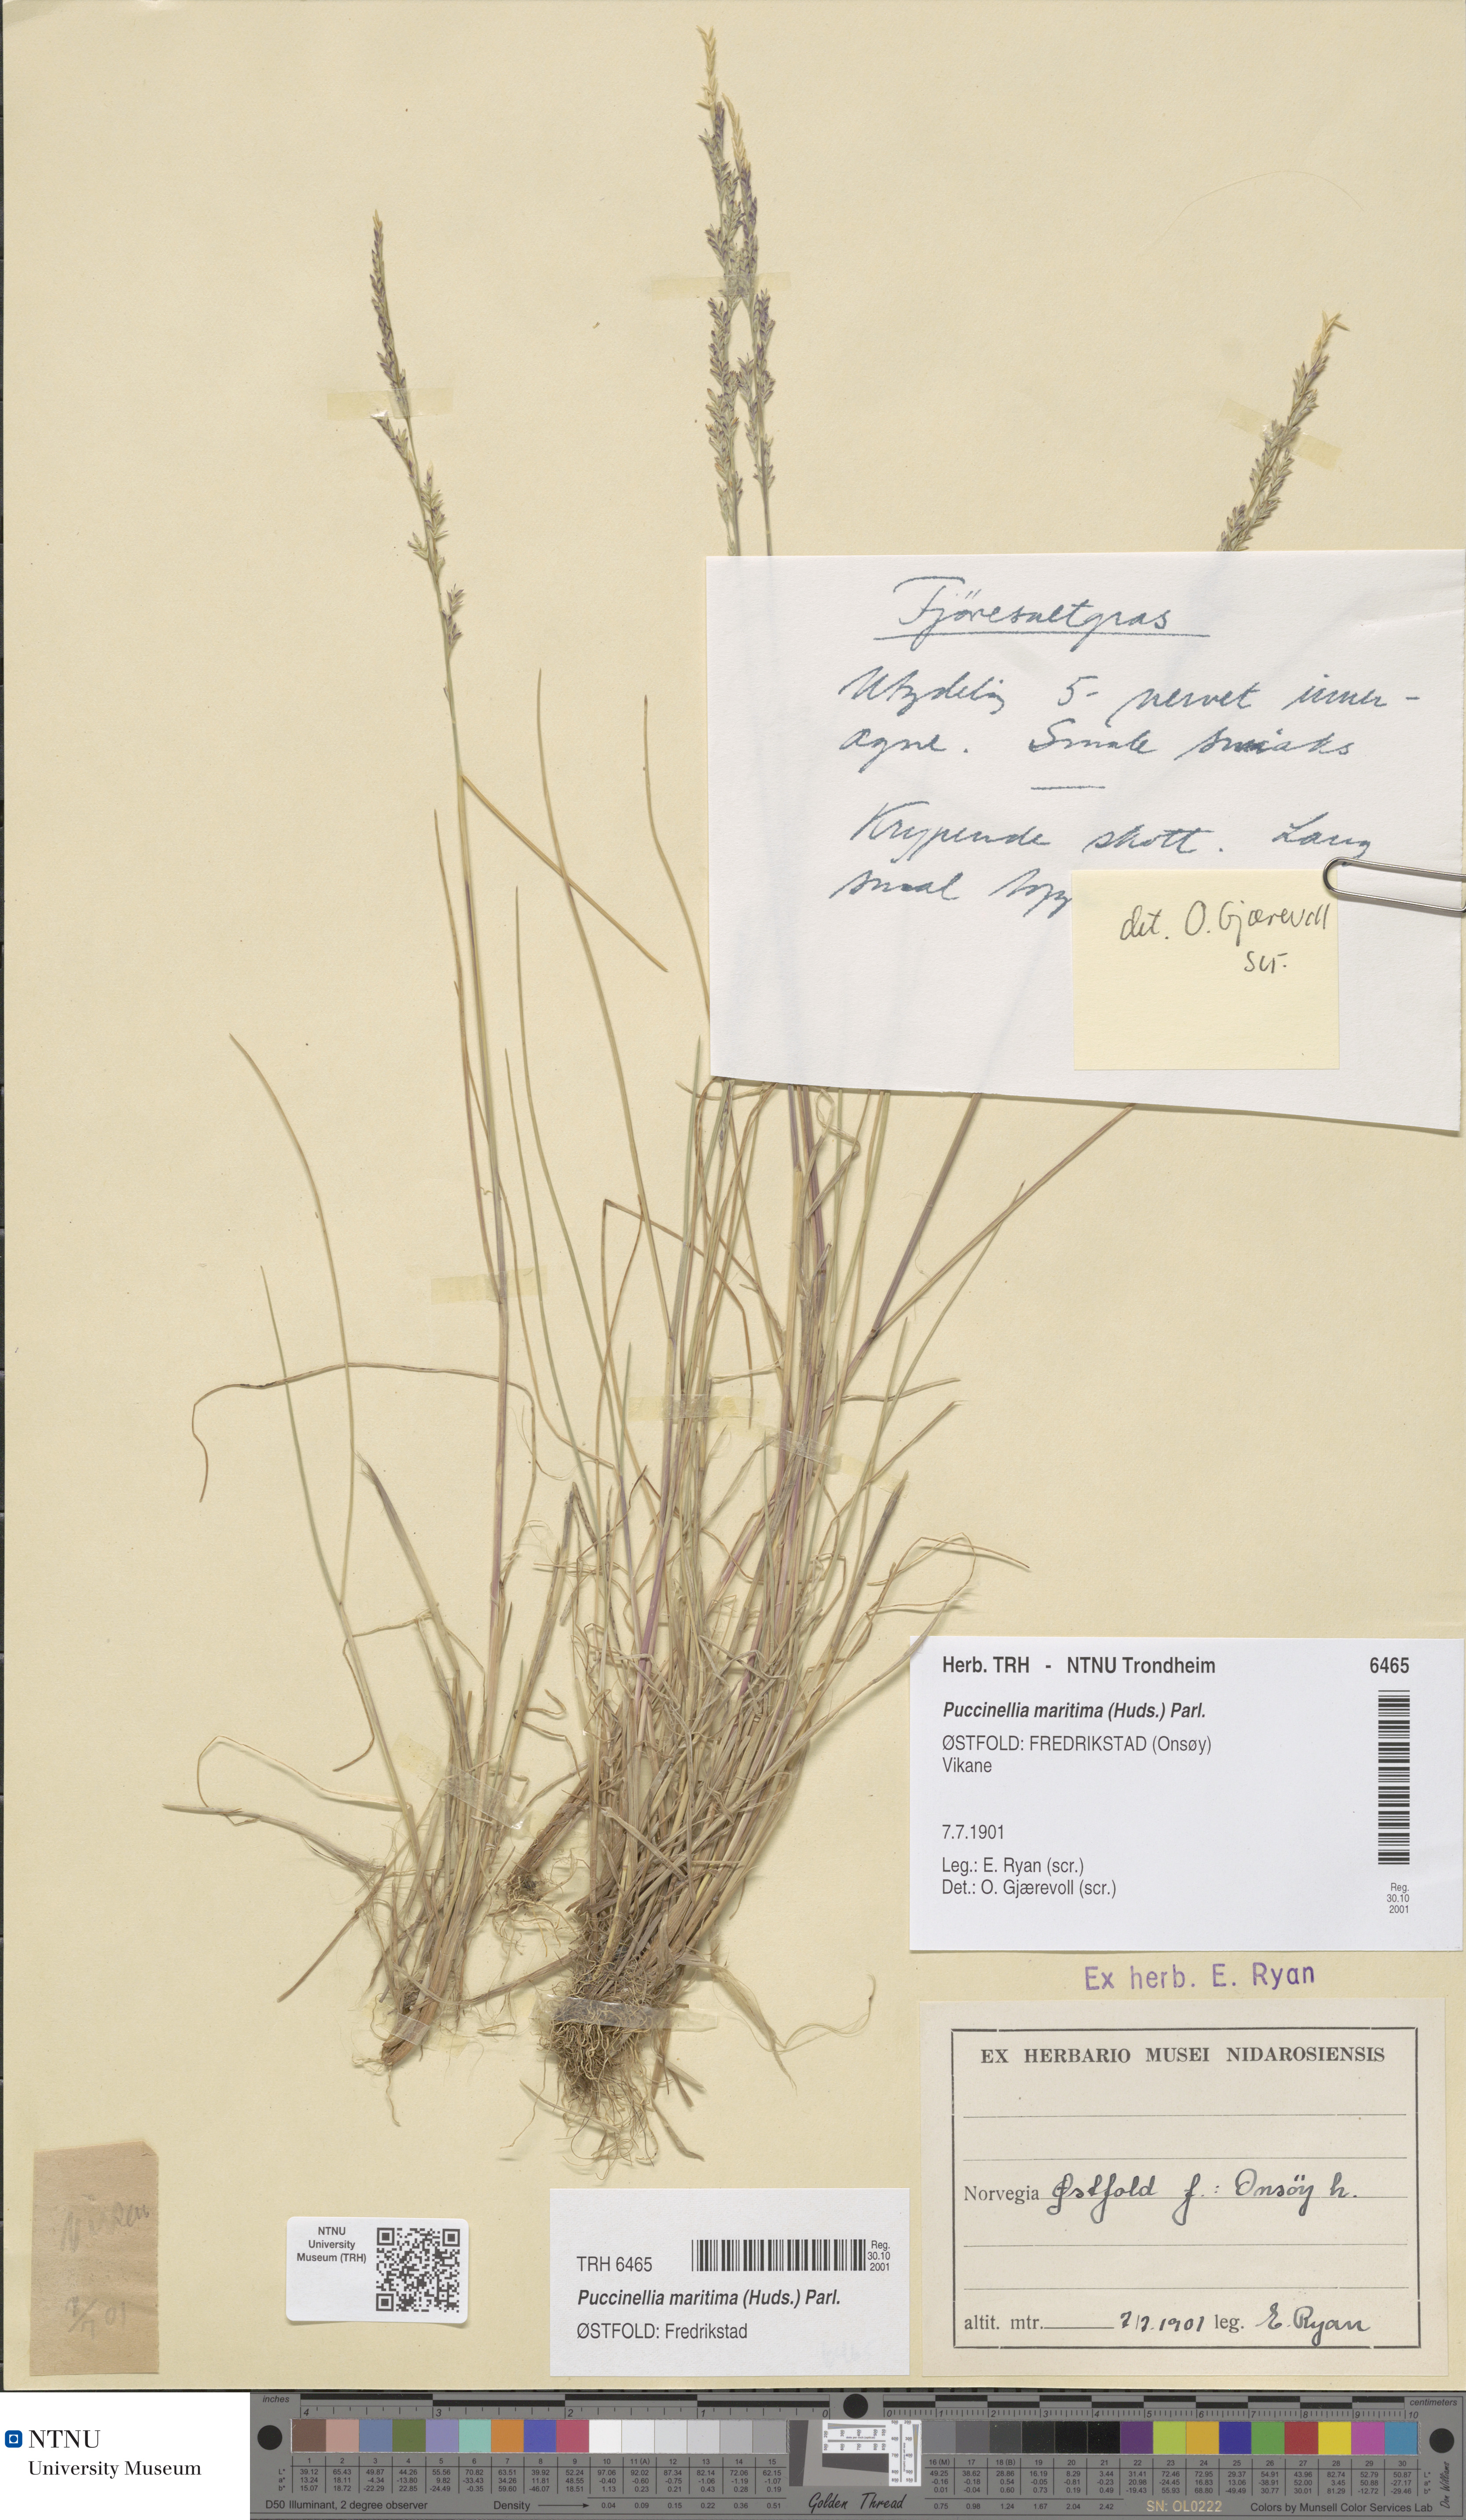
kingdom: Plantae
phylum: Tracheophyta
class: Liliopsida
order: Poales
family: Poaceae
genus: Puccinellia
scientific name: Puccinellia maritima
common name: Common saltmarsh grass
